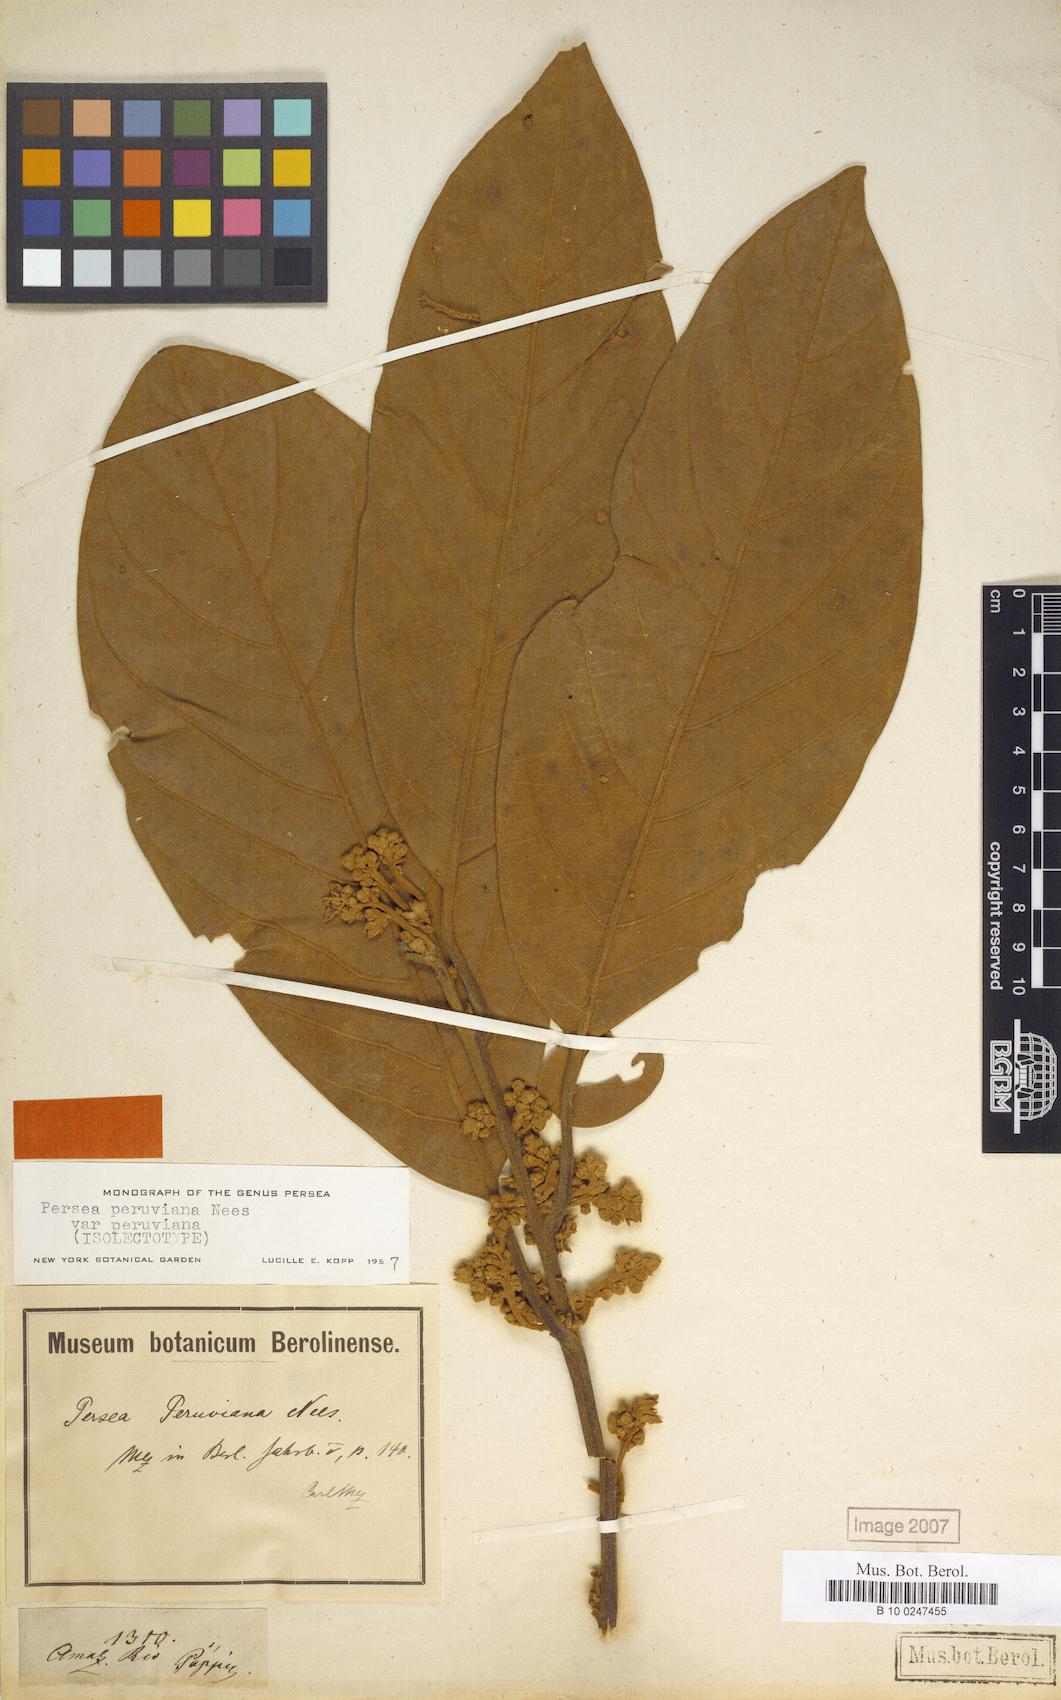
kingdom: Plantae
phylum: Tracheophyta
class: Magnoliopsida
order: Laurales
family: Lauraceae
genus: Persea
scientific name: Persea peruviana
